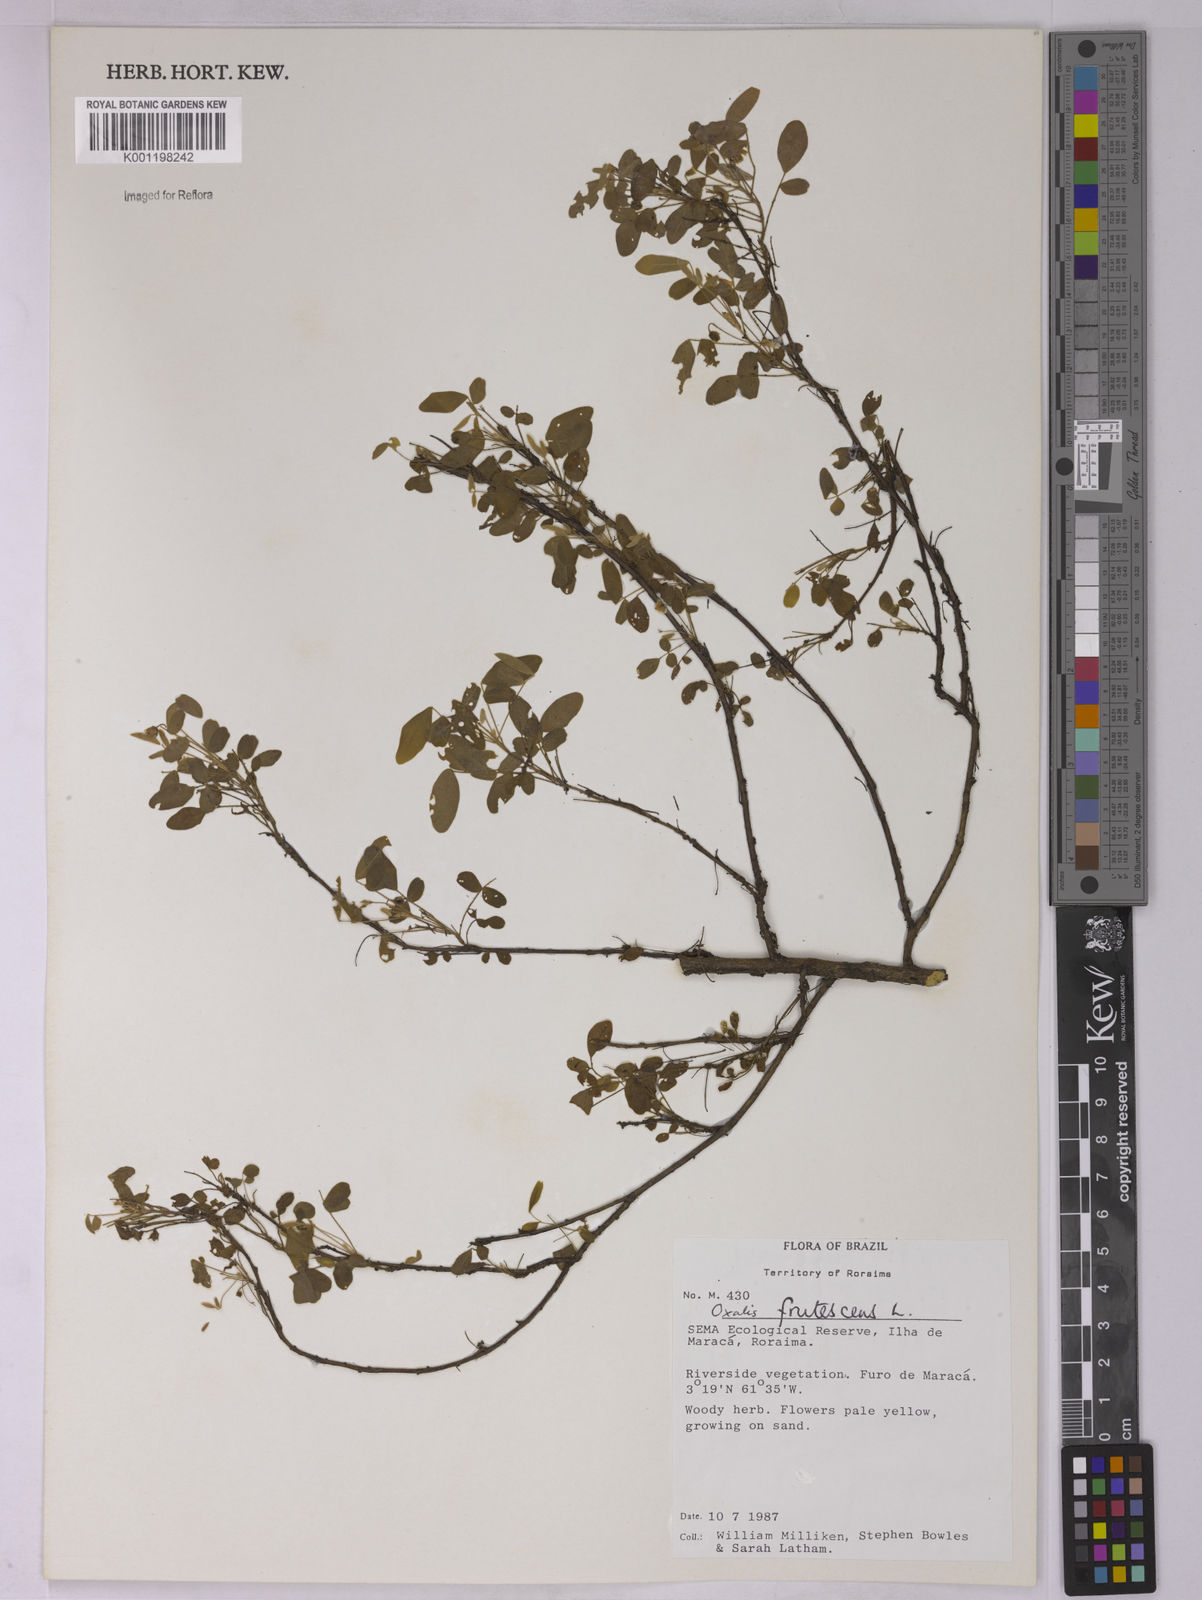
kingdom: Plantae
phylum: Tracheophyta
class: Magnoliopsida
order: Oxalidales
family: Oxalidaceae
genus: Oxalis
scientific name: Oxalis frutescens
